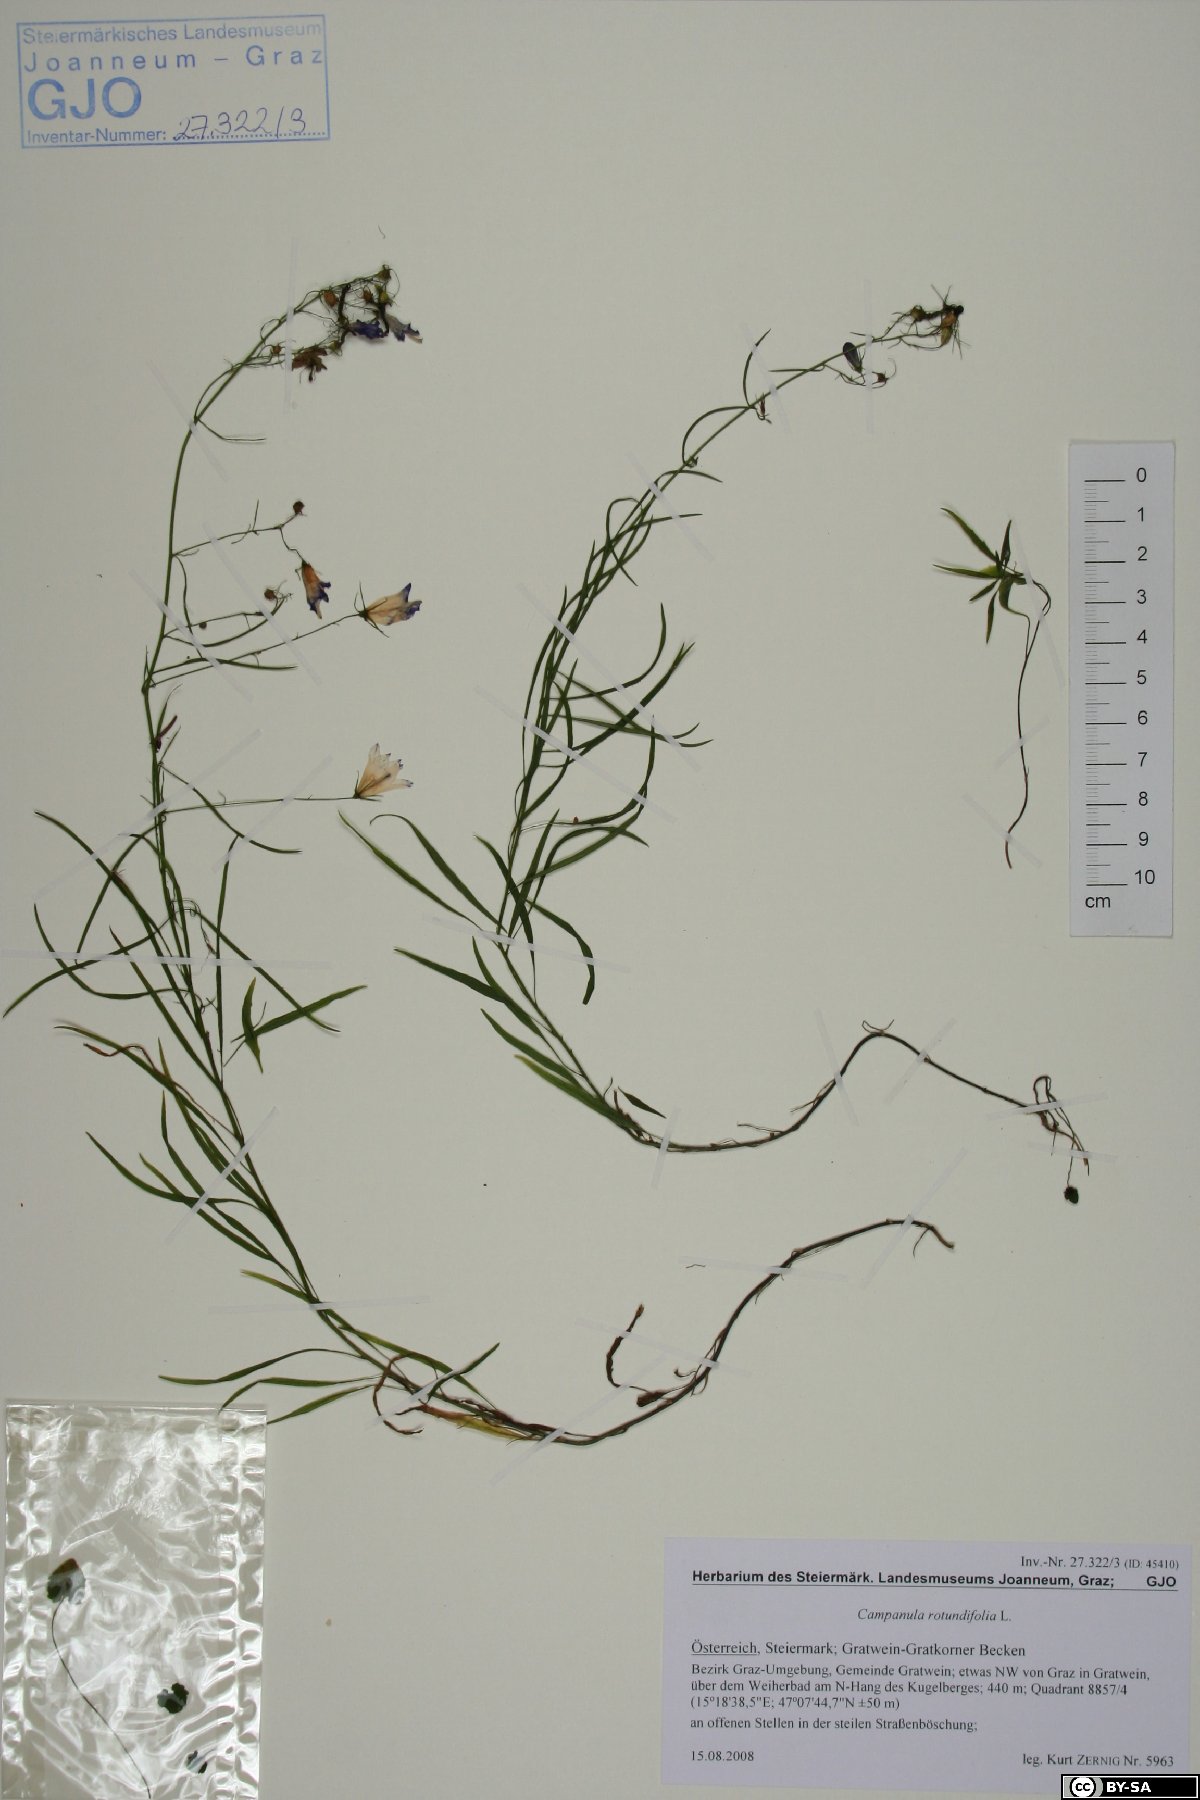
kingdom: Plantae
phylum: Tracheophyta
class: Magnoliopsida
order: Asterales
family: Campanulaceae
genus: Campanula
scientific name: Campanula rotundifolia
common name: Harebell
